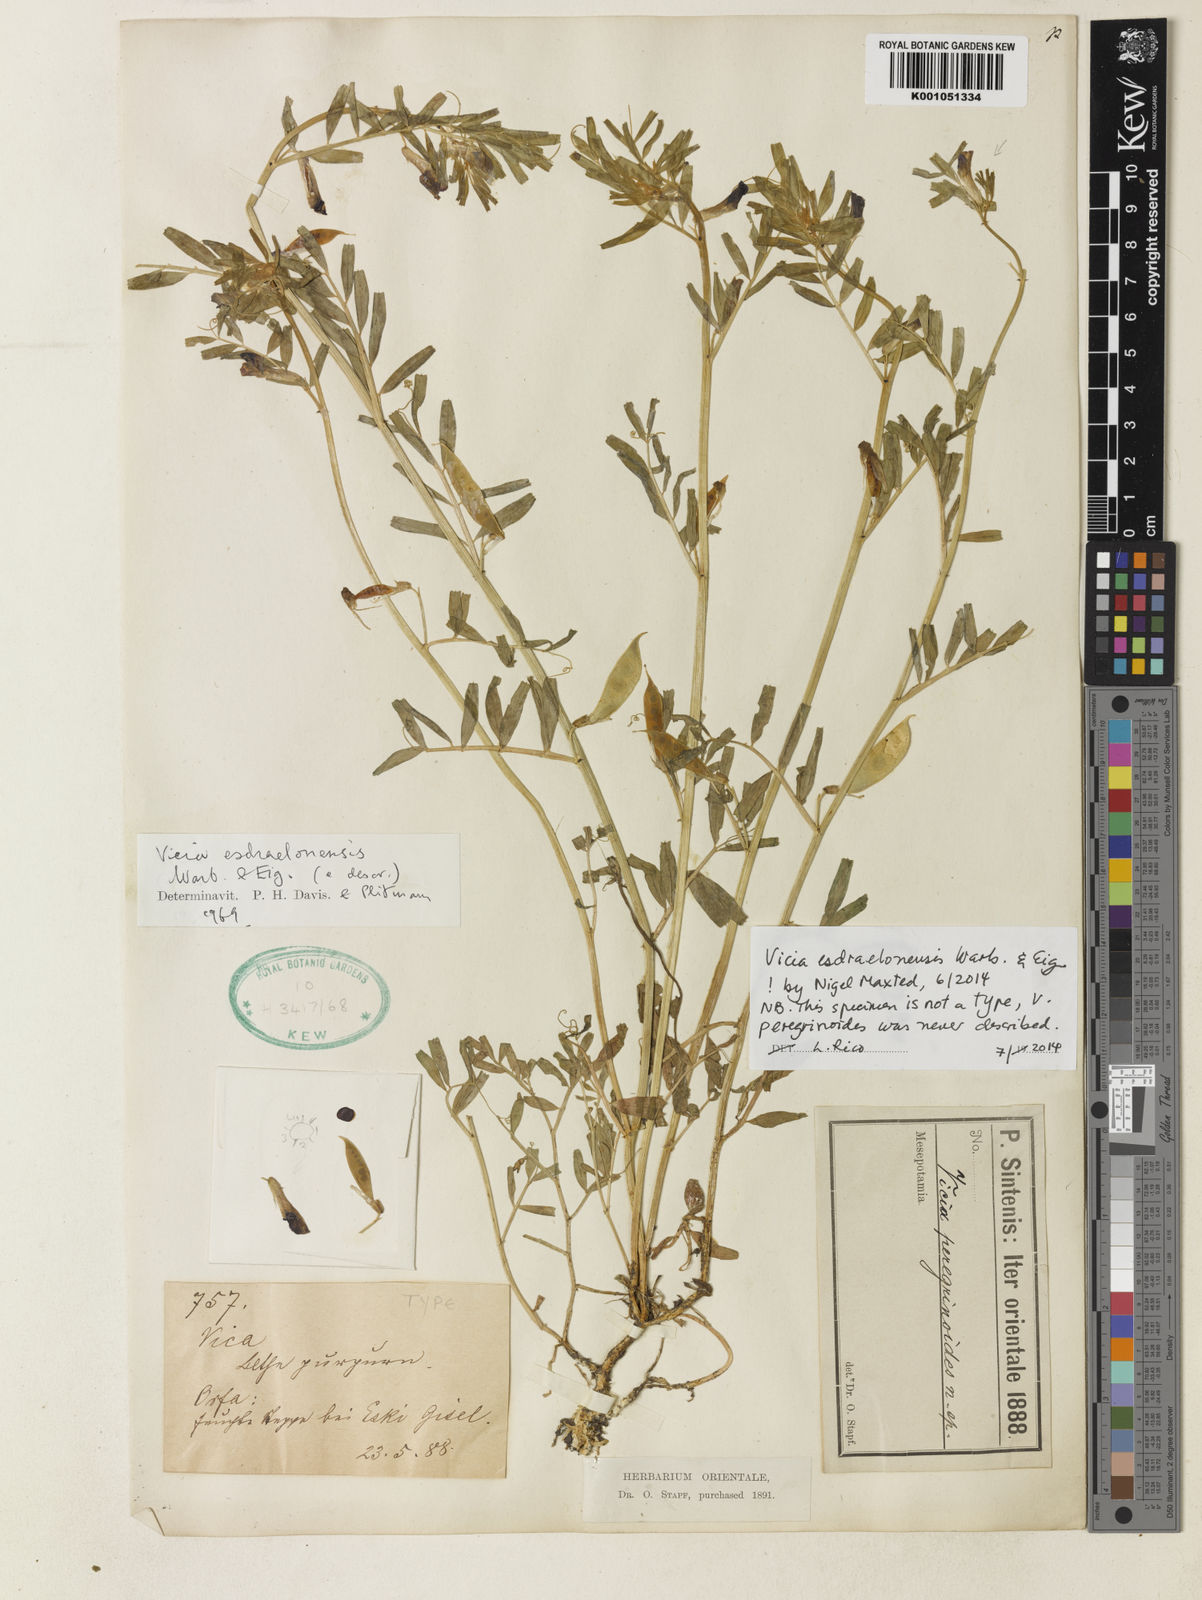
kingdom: Plantae
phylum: Tracheophyta
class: Magnoliopsida
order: Fabales
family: Fabaceae
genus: Vicia
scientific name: Vicia esdraelonensis
